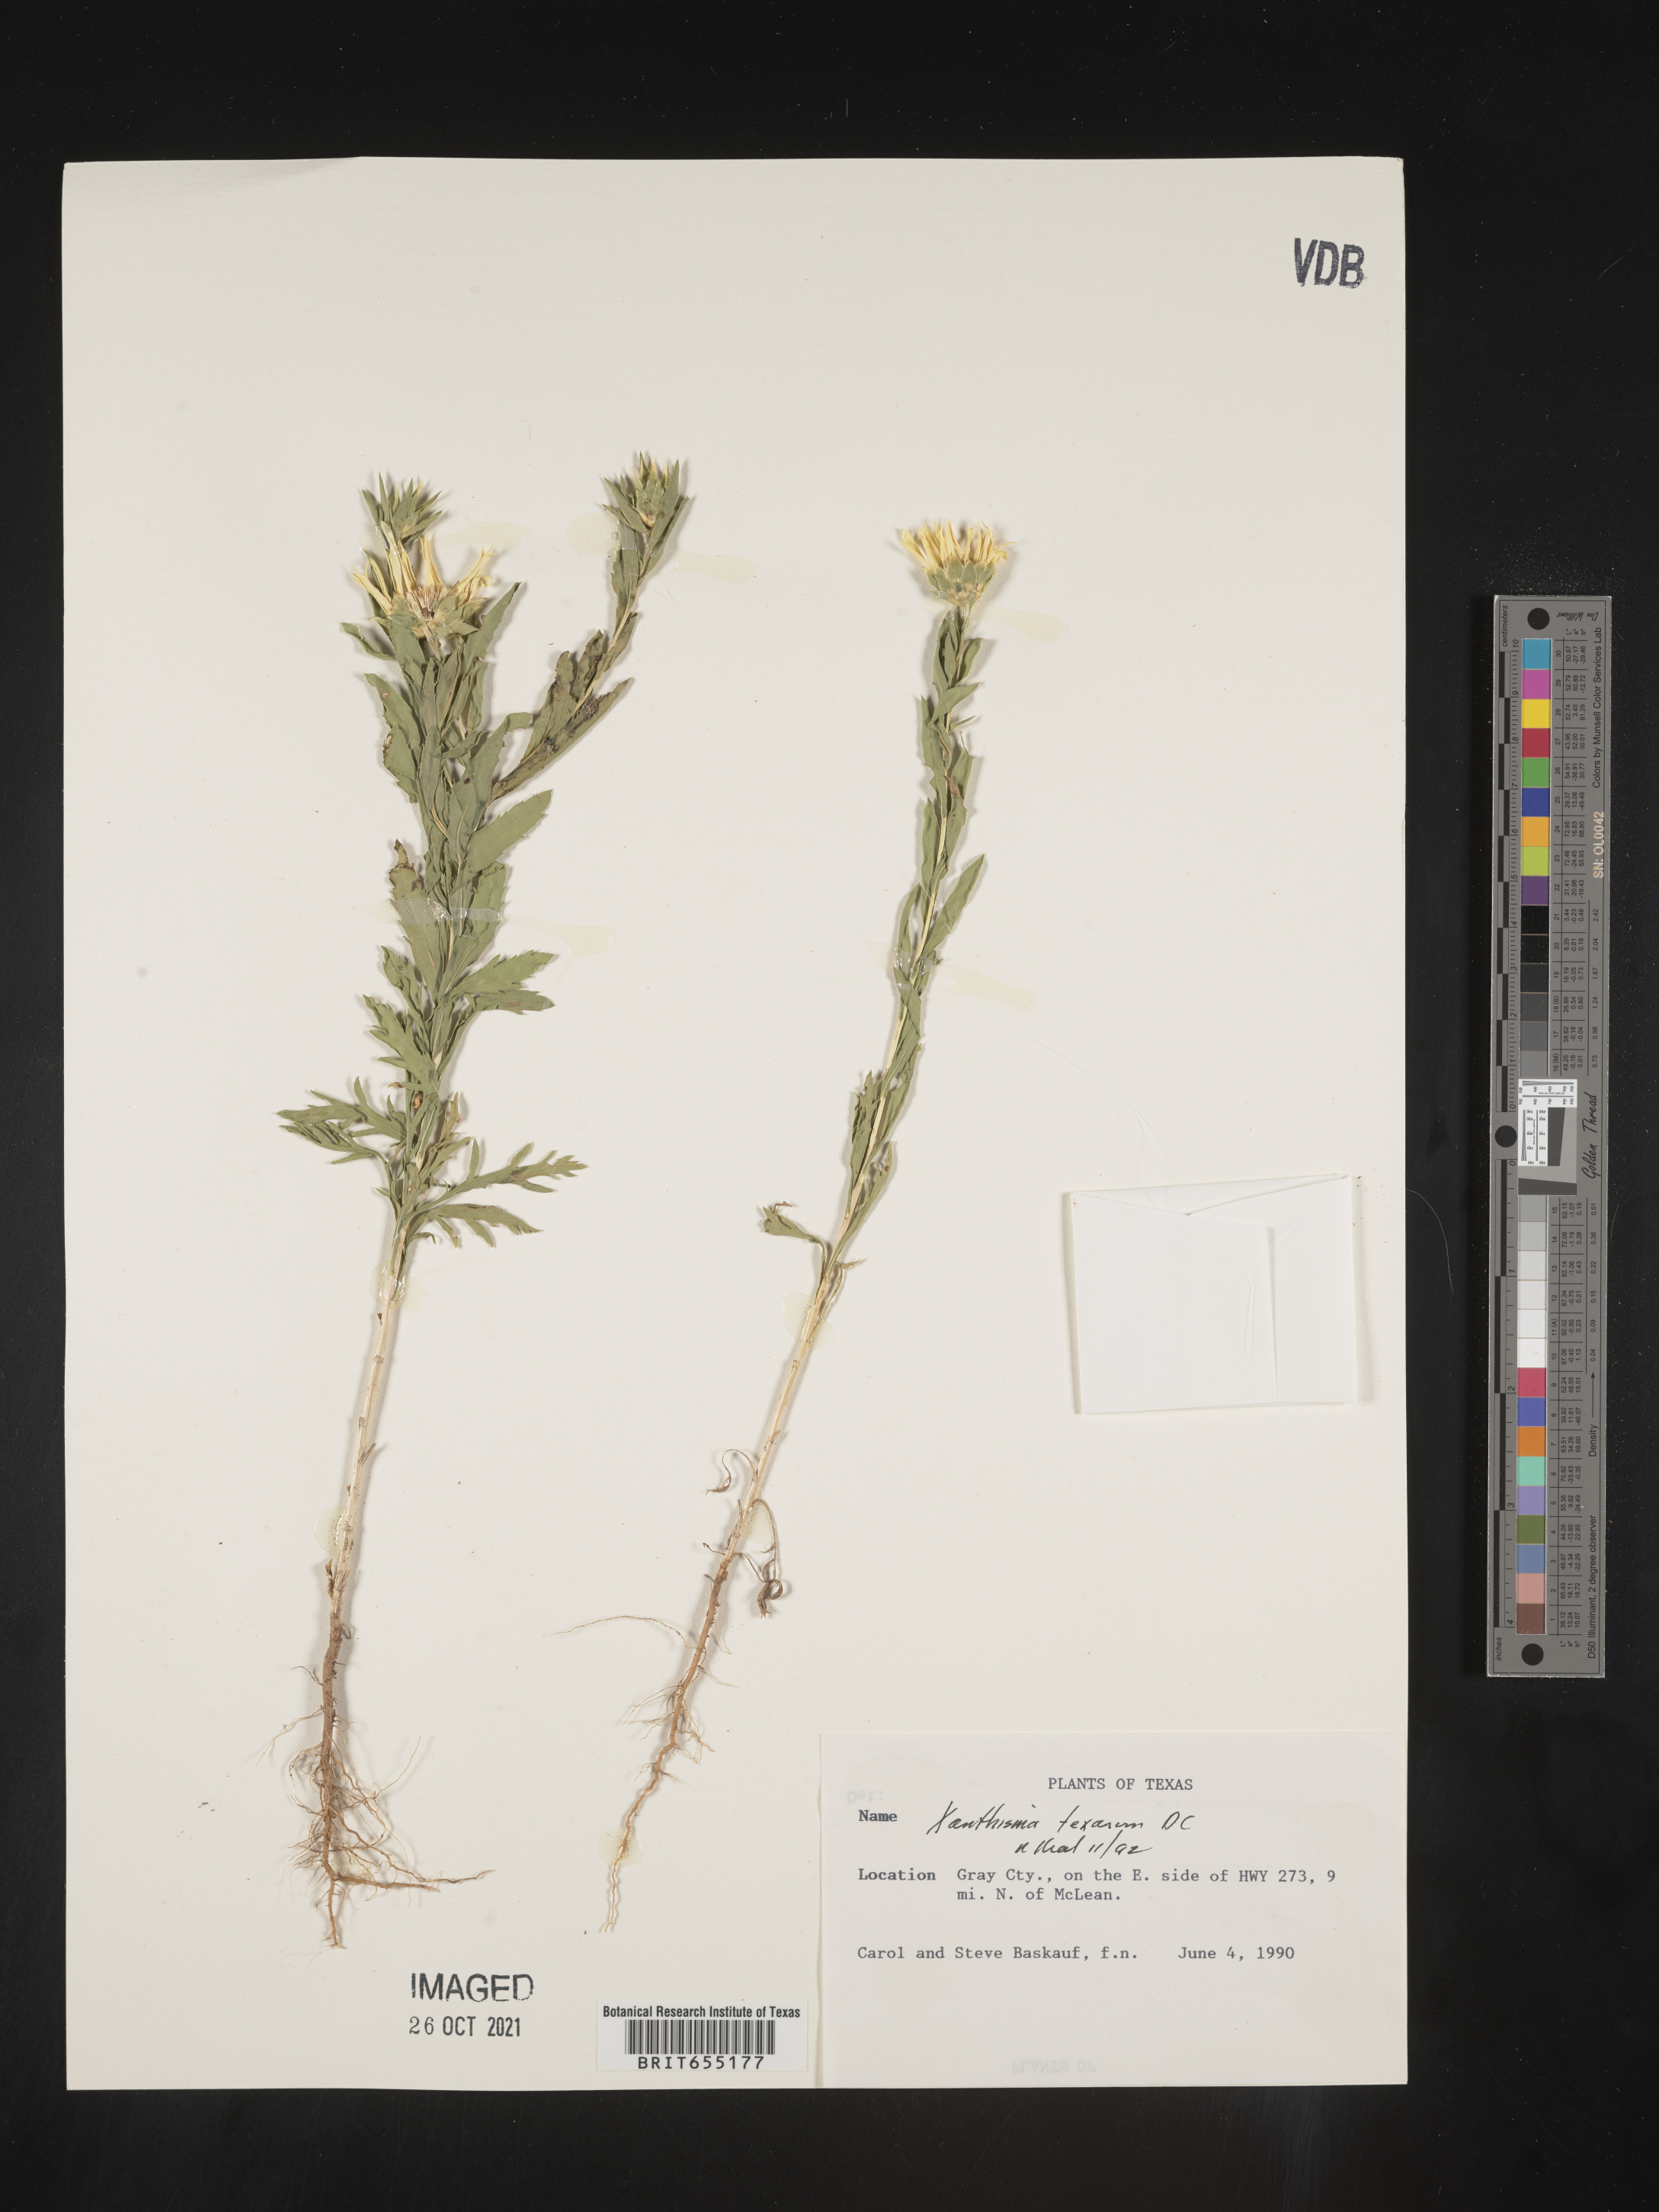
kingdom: Plantae
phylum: Tracheophyta
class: Magnoliopsida
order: Asterales
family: Asteraceae
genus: Xanthisma
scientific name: Xanthisma texanum
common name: Texas sleepy daisy
